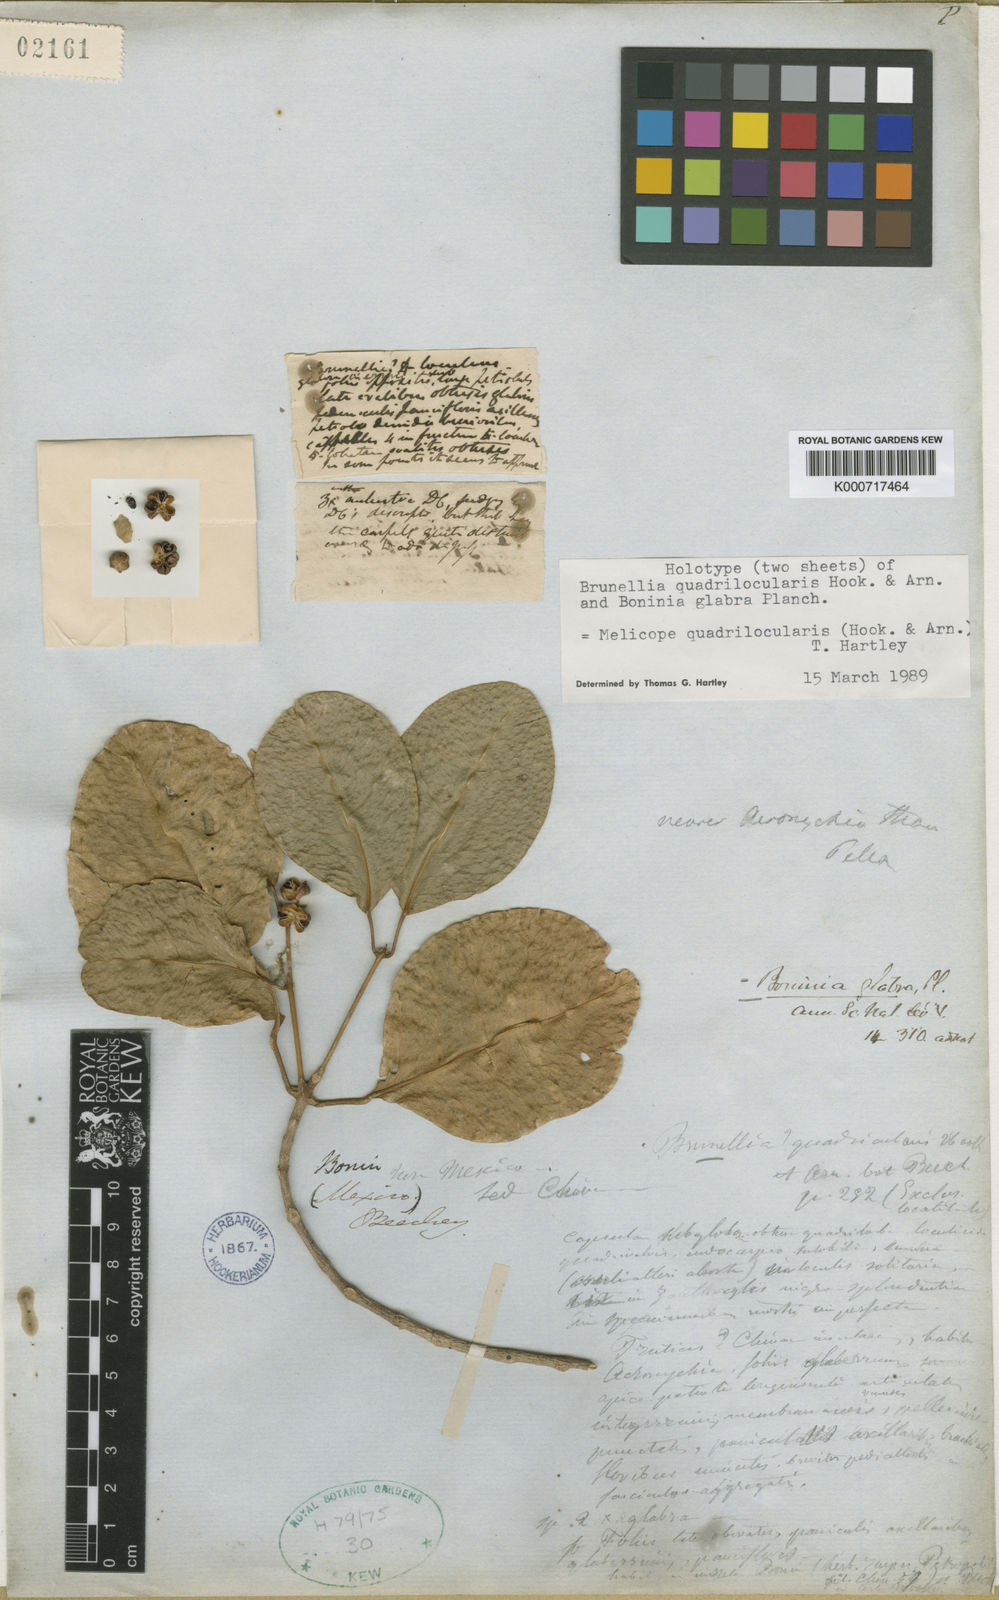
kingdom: Plantae
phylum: Tracheophyta
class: Magnoliopsida
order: Sapindales
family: Rutaceae
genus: Melicope
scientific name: Melicope quadrilocularis
